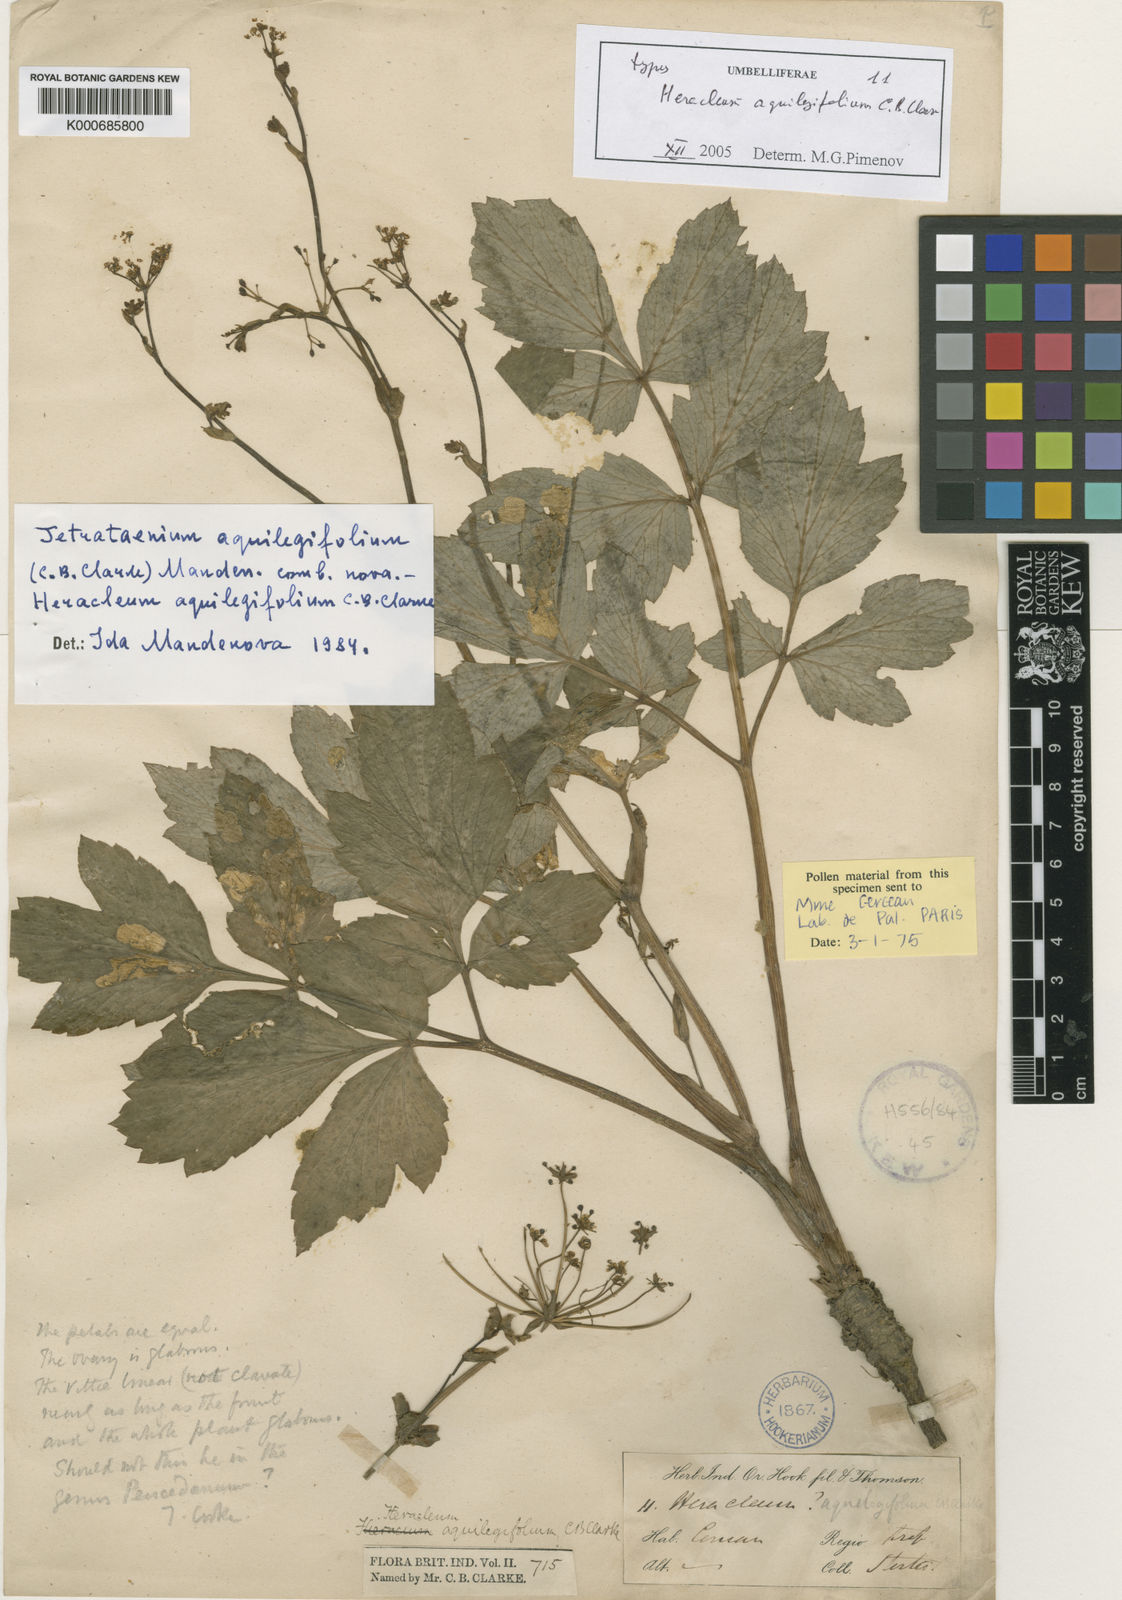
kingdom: Plantae
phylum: Tracheophyta
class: Magnoliopsida
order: Apiales
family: Apiaceae
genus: Tetrataenium
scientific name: Tetrataenium aquilegifolium
